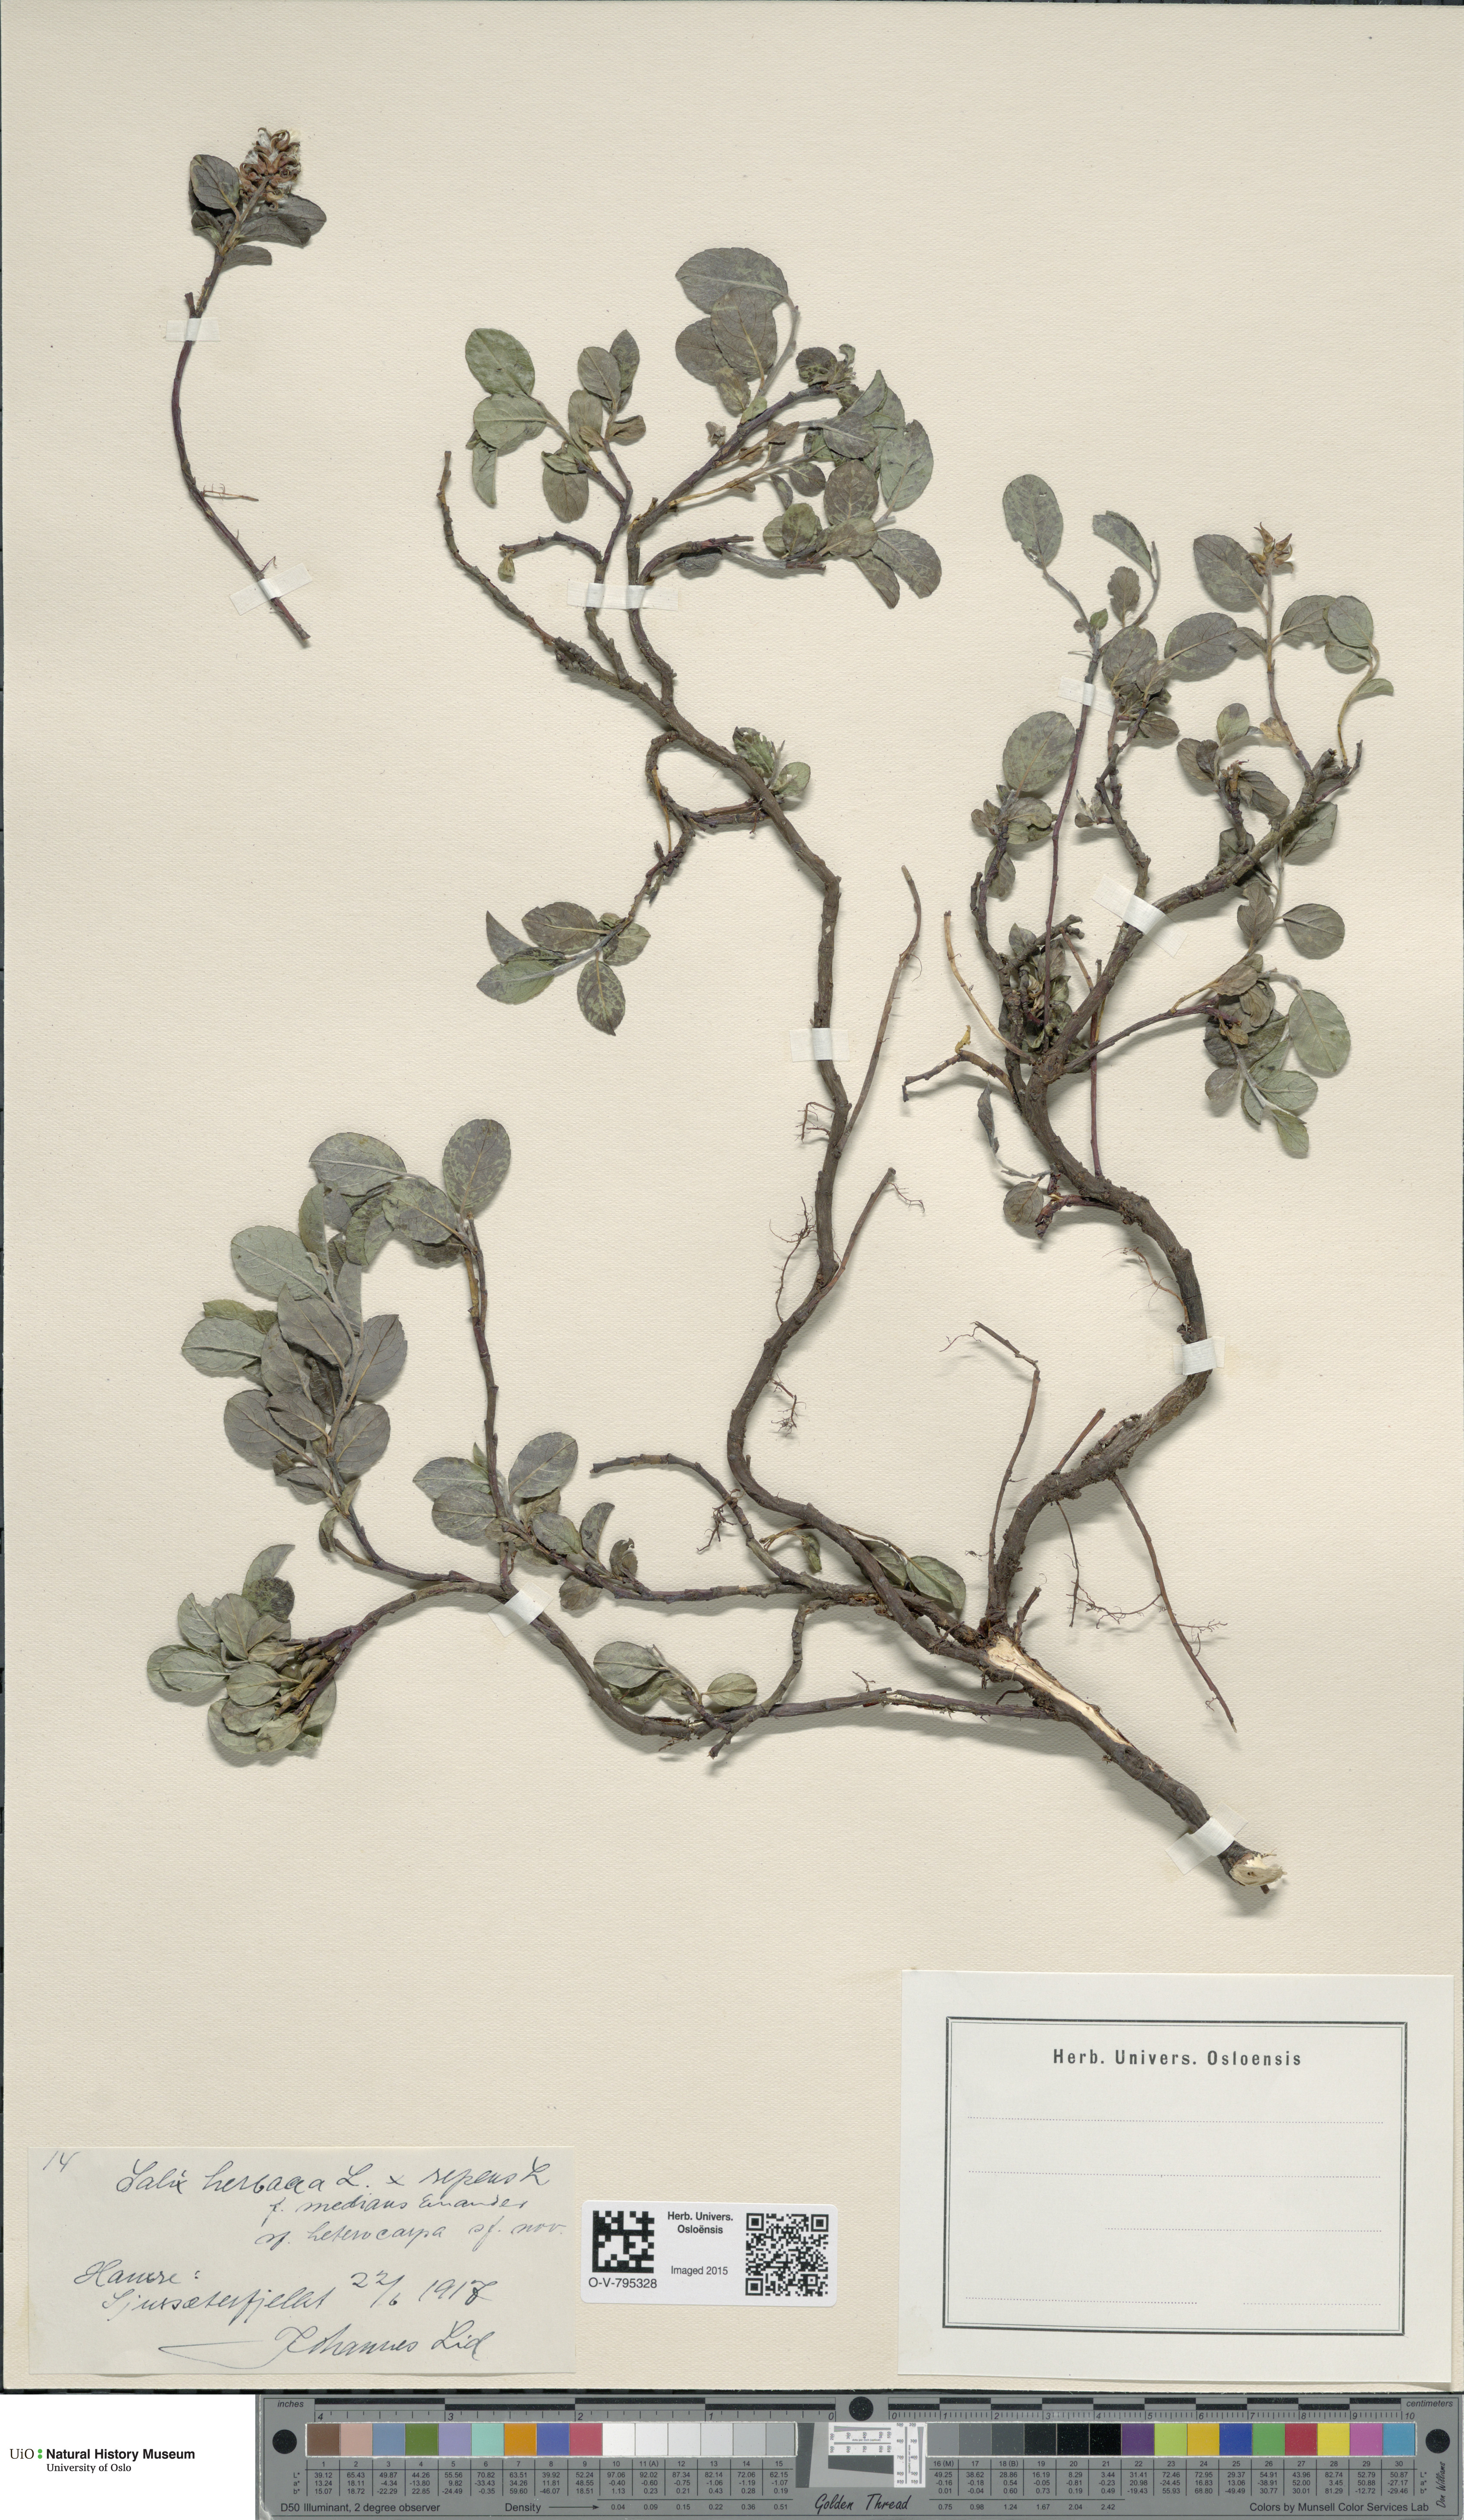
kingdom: Plantae
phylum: Tracheophyta
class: Magnoliopsida
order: Malpighiales
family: Salicaceae
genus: Salix
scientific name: Salix
